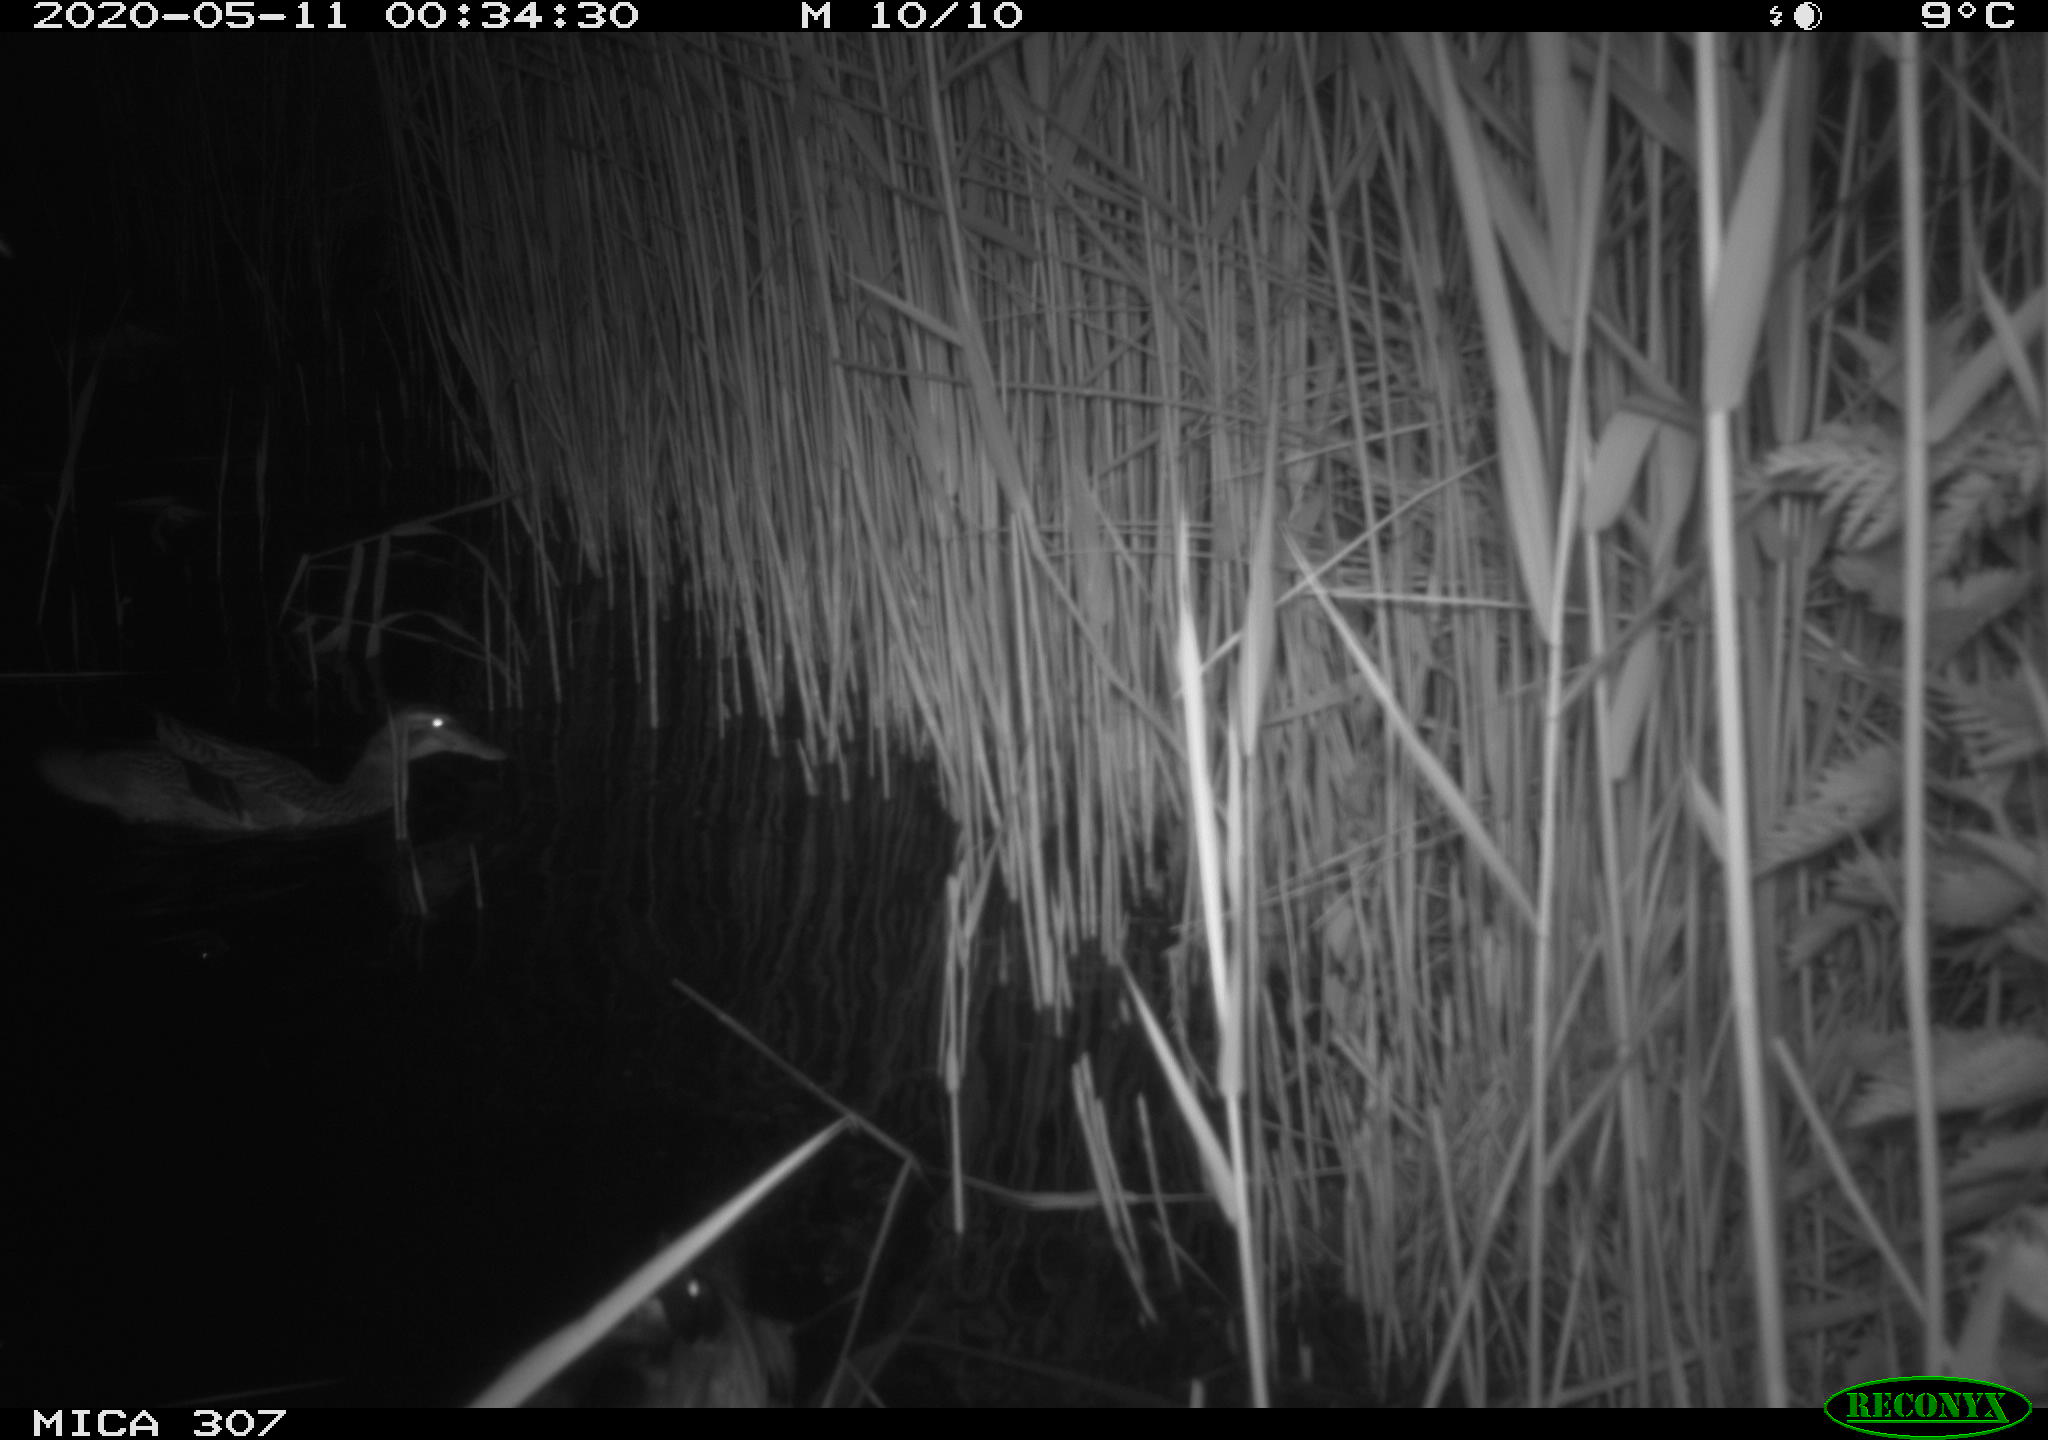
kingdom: Animalia
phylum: Chordata
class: Aves
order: Anseriformes
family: Anatidae
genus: Anas
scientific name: Anas platyrhynchos
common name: Mallard
